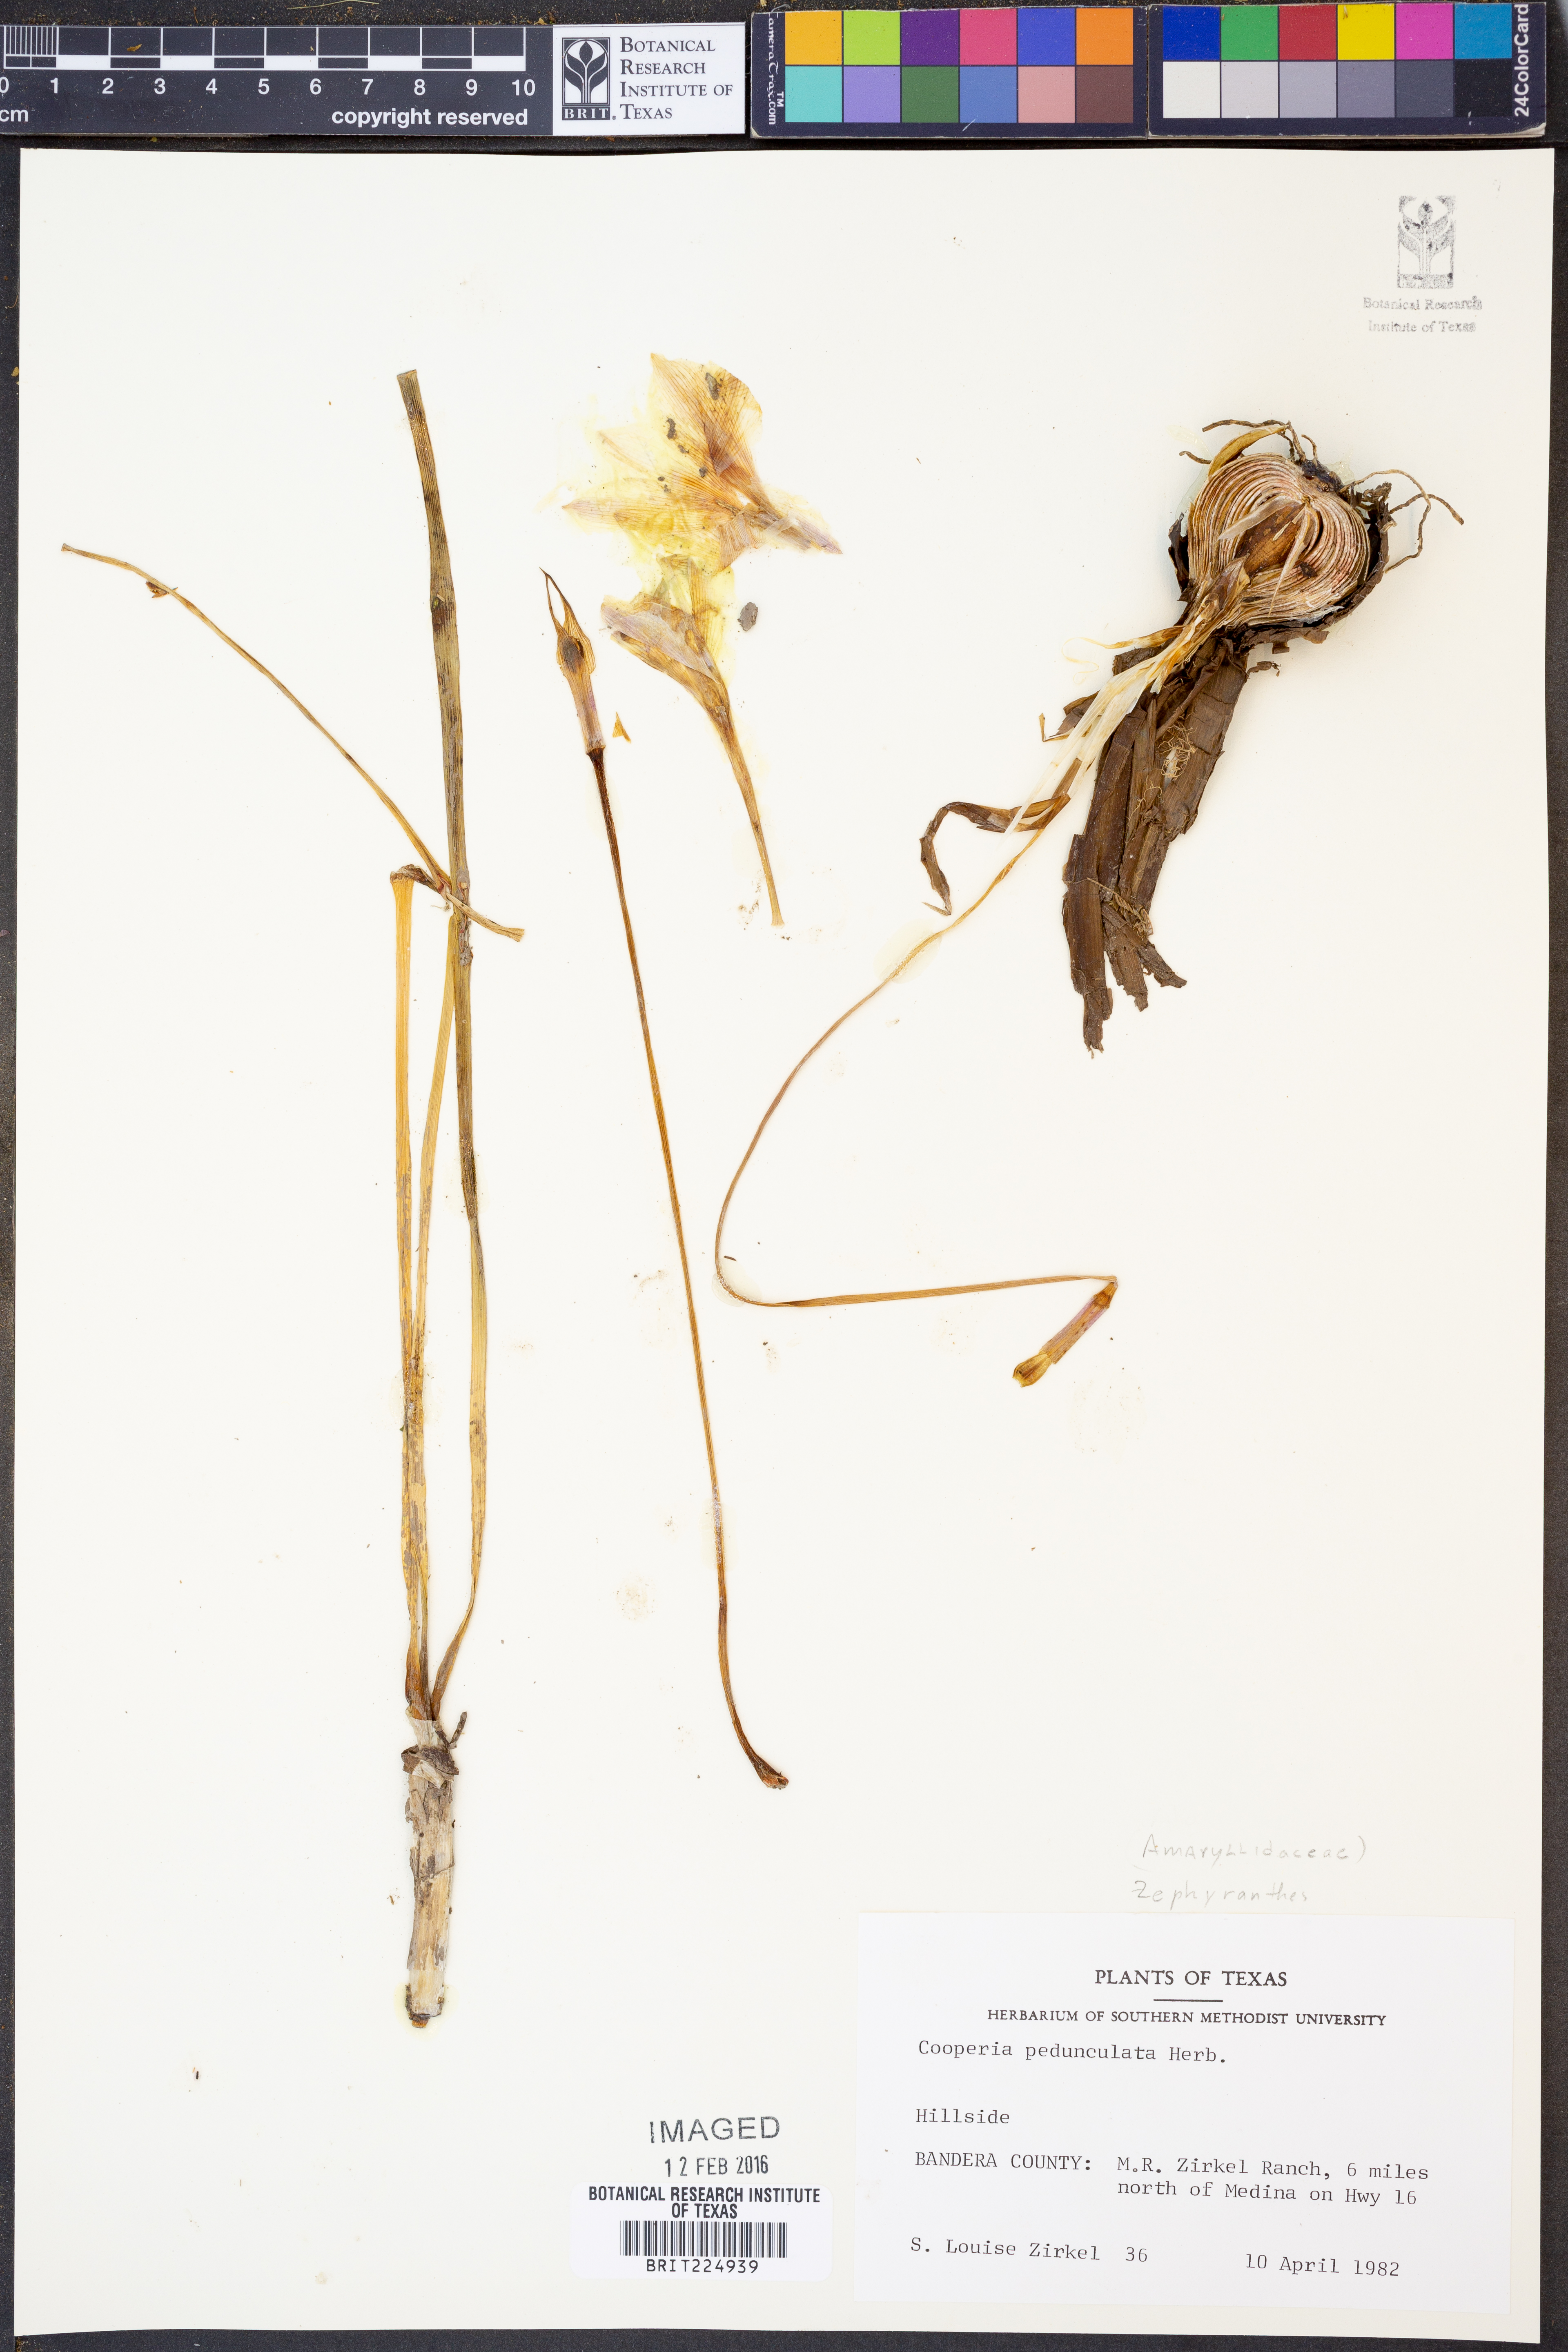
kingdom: Plantae
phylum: Tracheophyta
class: Liliopsida
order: Asparagales
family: Amaryllidaceae
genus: Zephyranthes
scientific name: Zephyranthes drummondii
